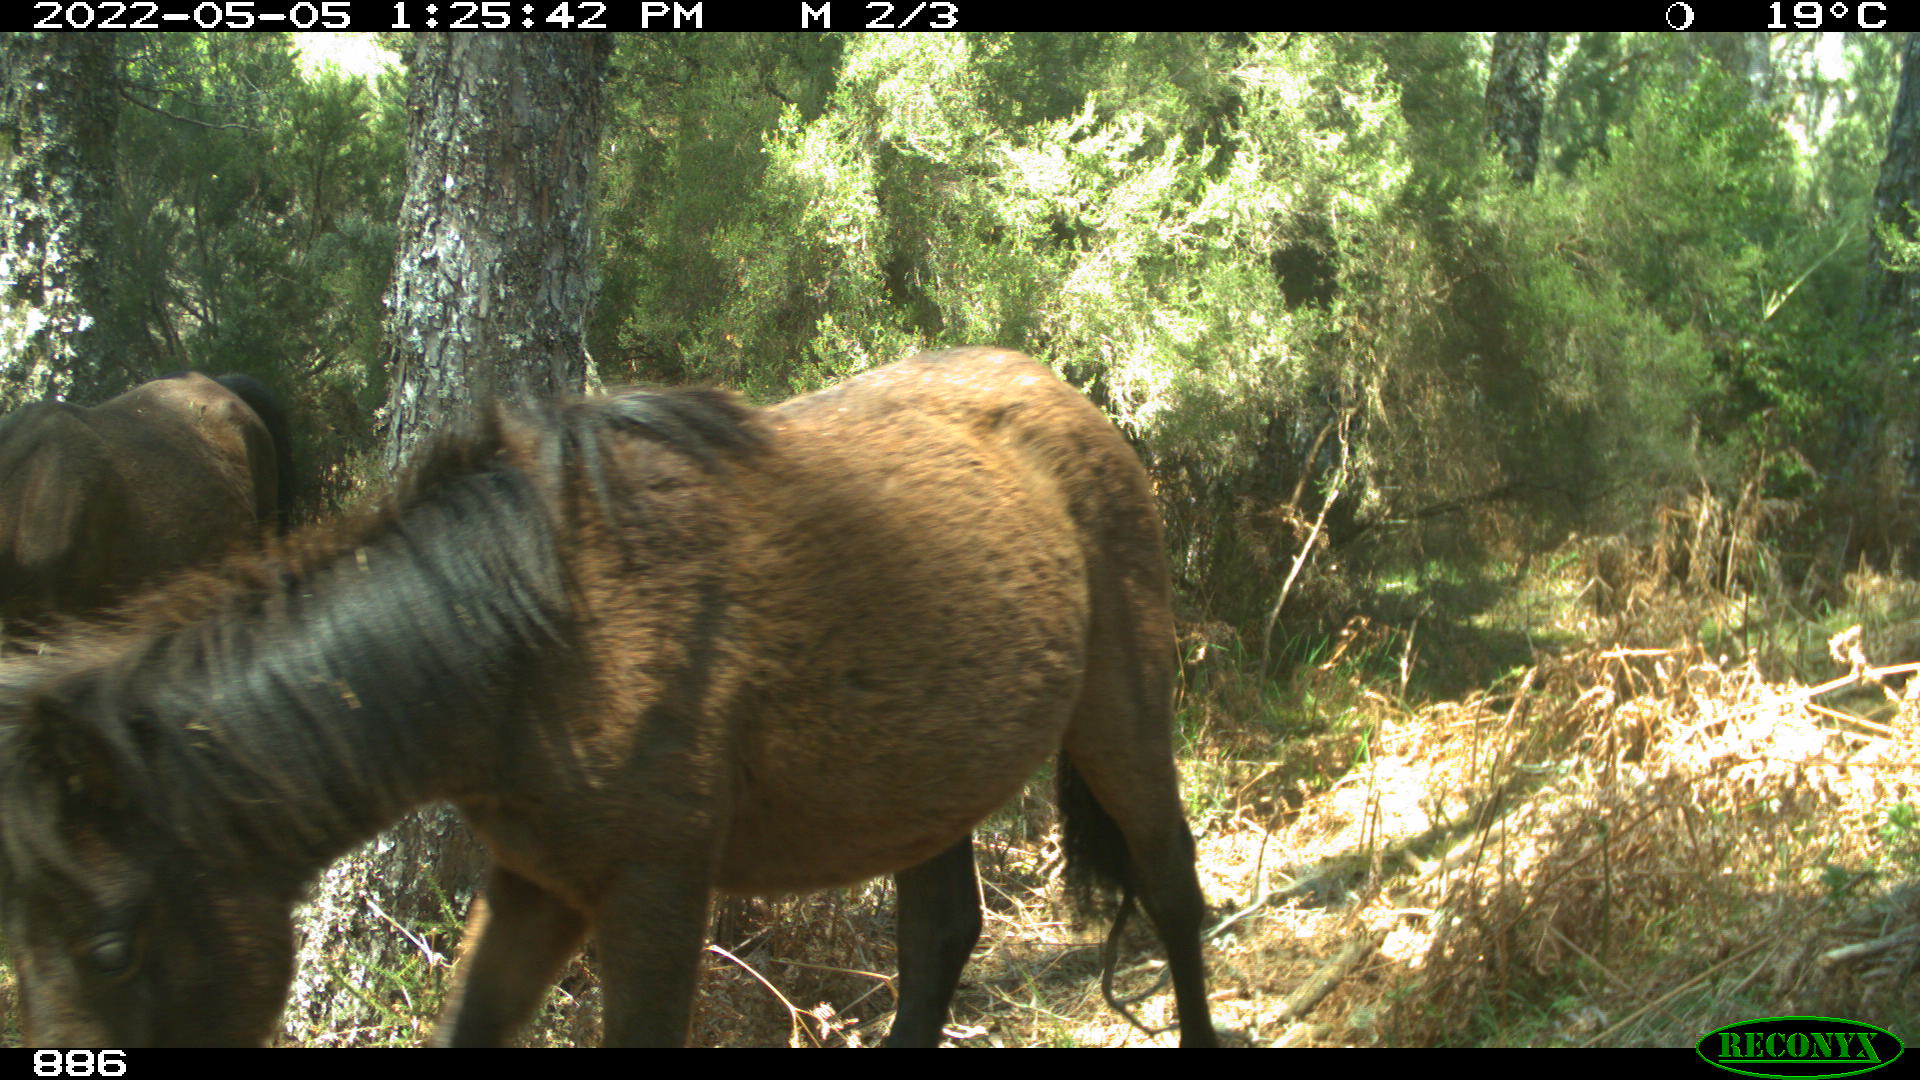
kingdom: Animalia
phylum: Chordata
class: Mammalia
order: Perissodactyla
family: Equidae
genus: Equus
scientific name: Equus caballus
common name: Horse
